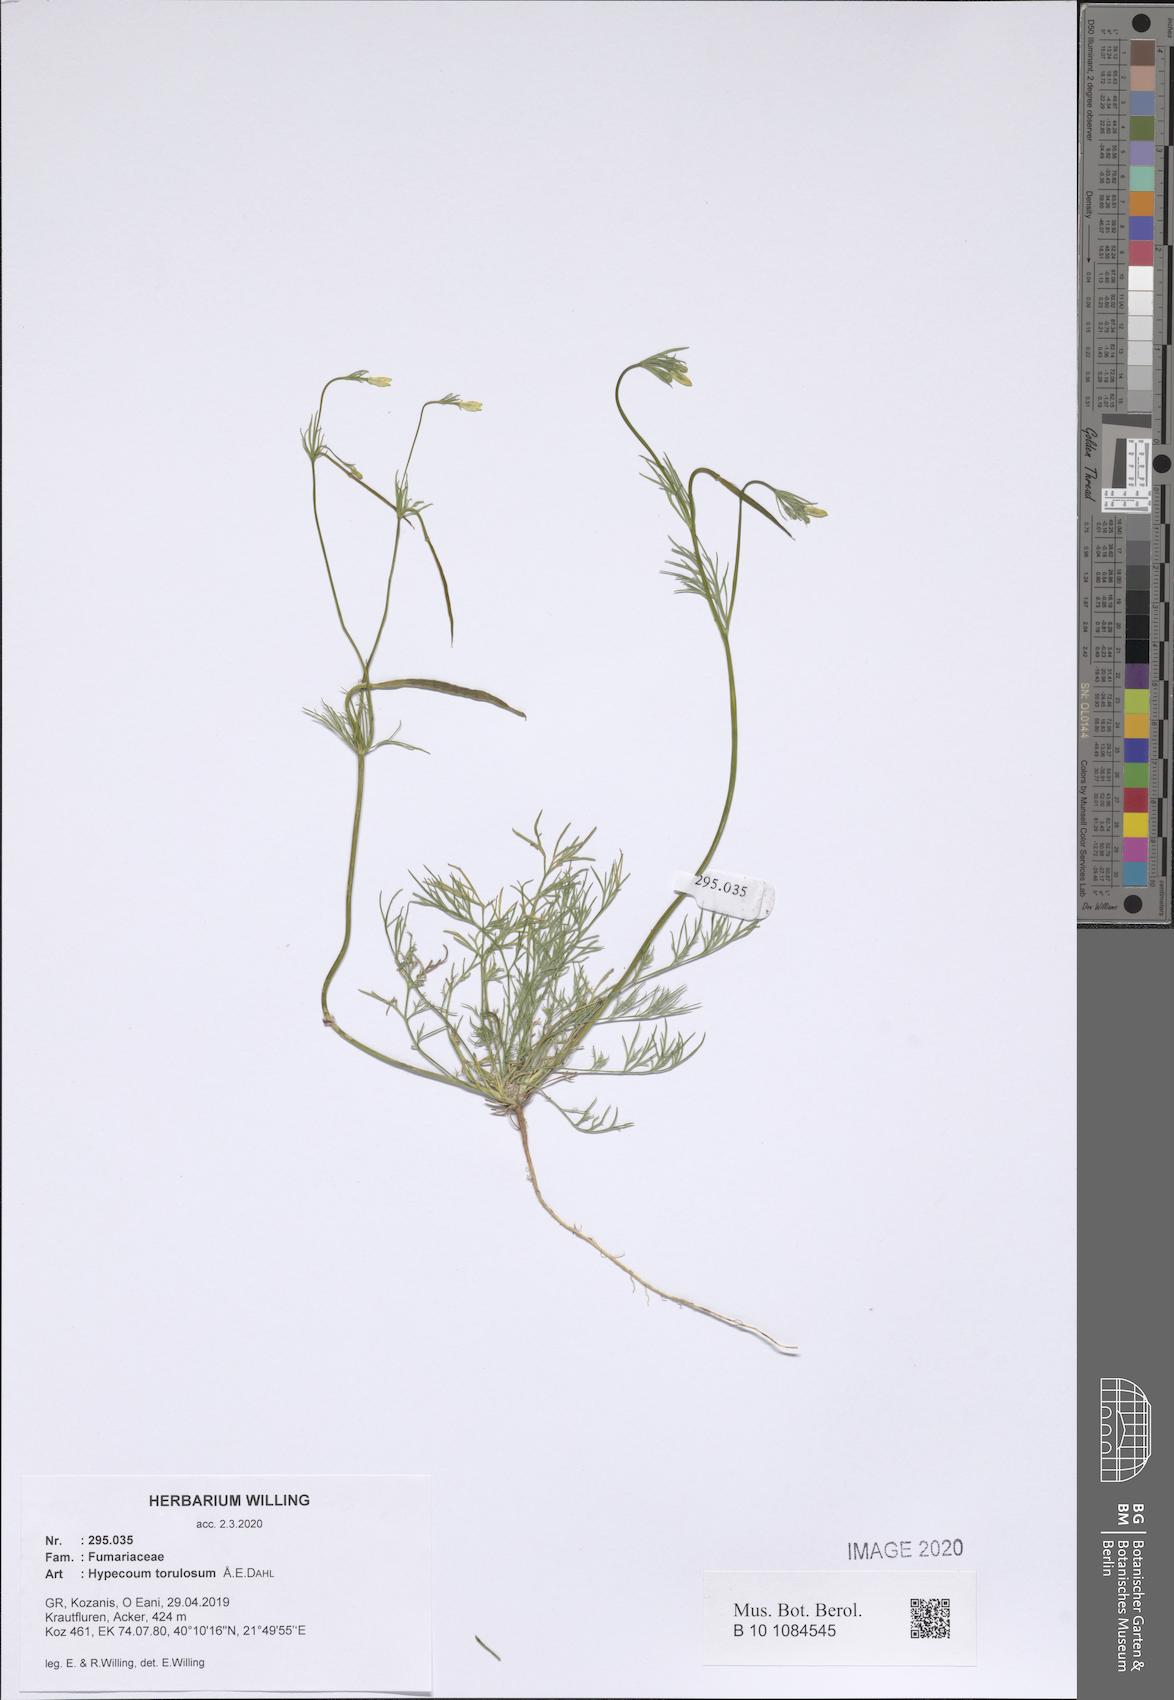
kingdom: Plantae
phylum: Tracheophyta
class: Magnoliopsida
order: Ranunculales
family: Papaveraceae
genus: Hypecoum
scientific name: Hypecoum torulosum
